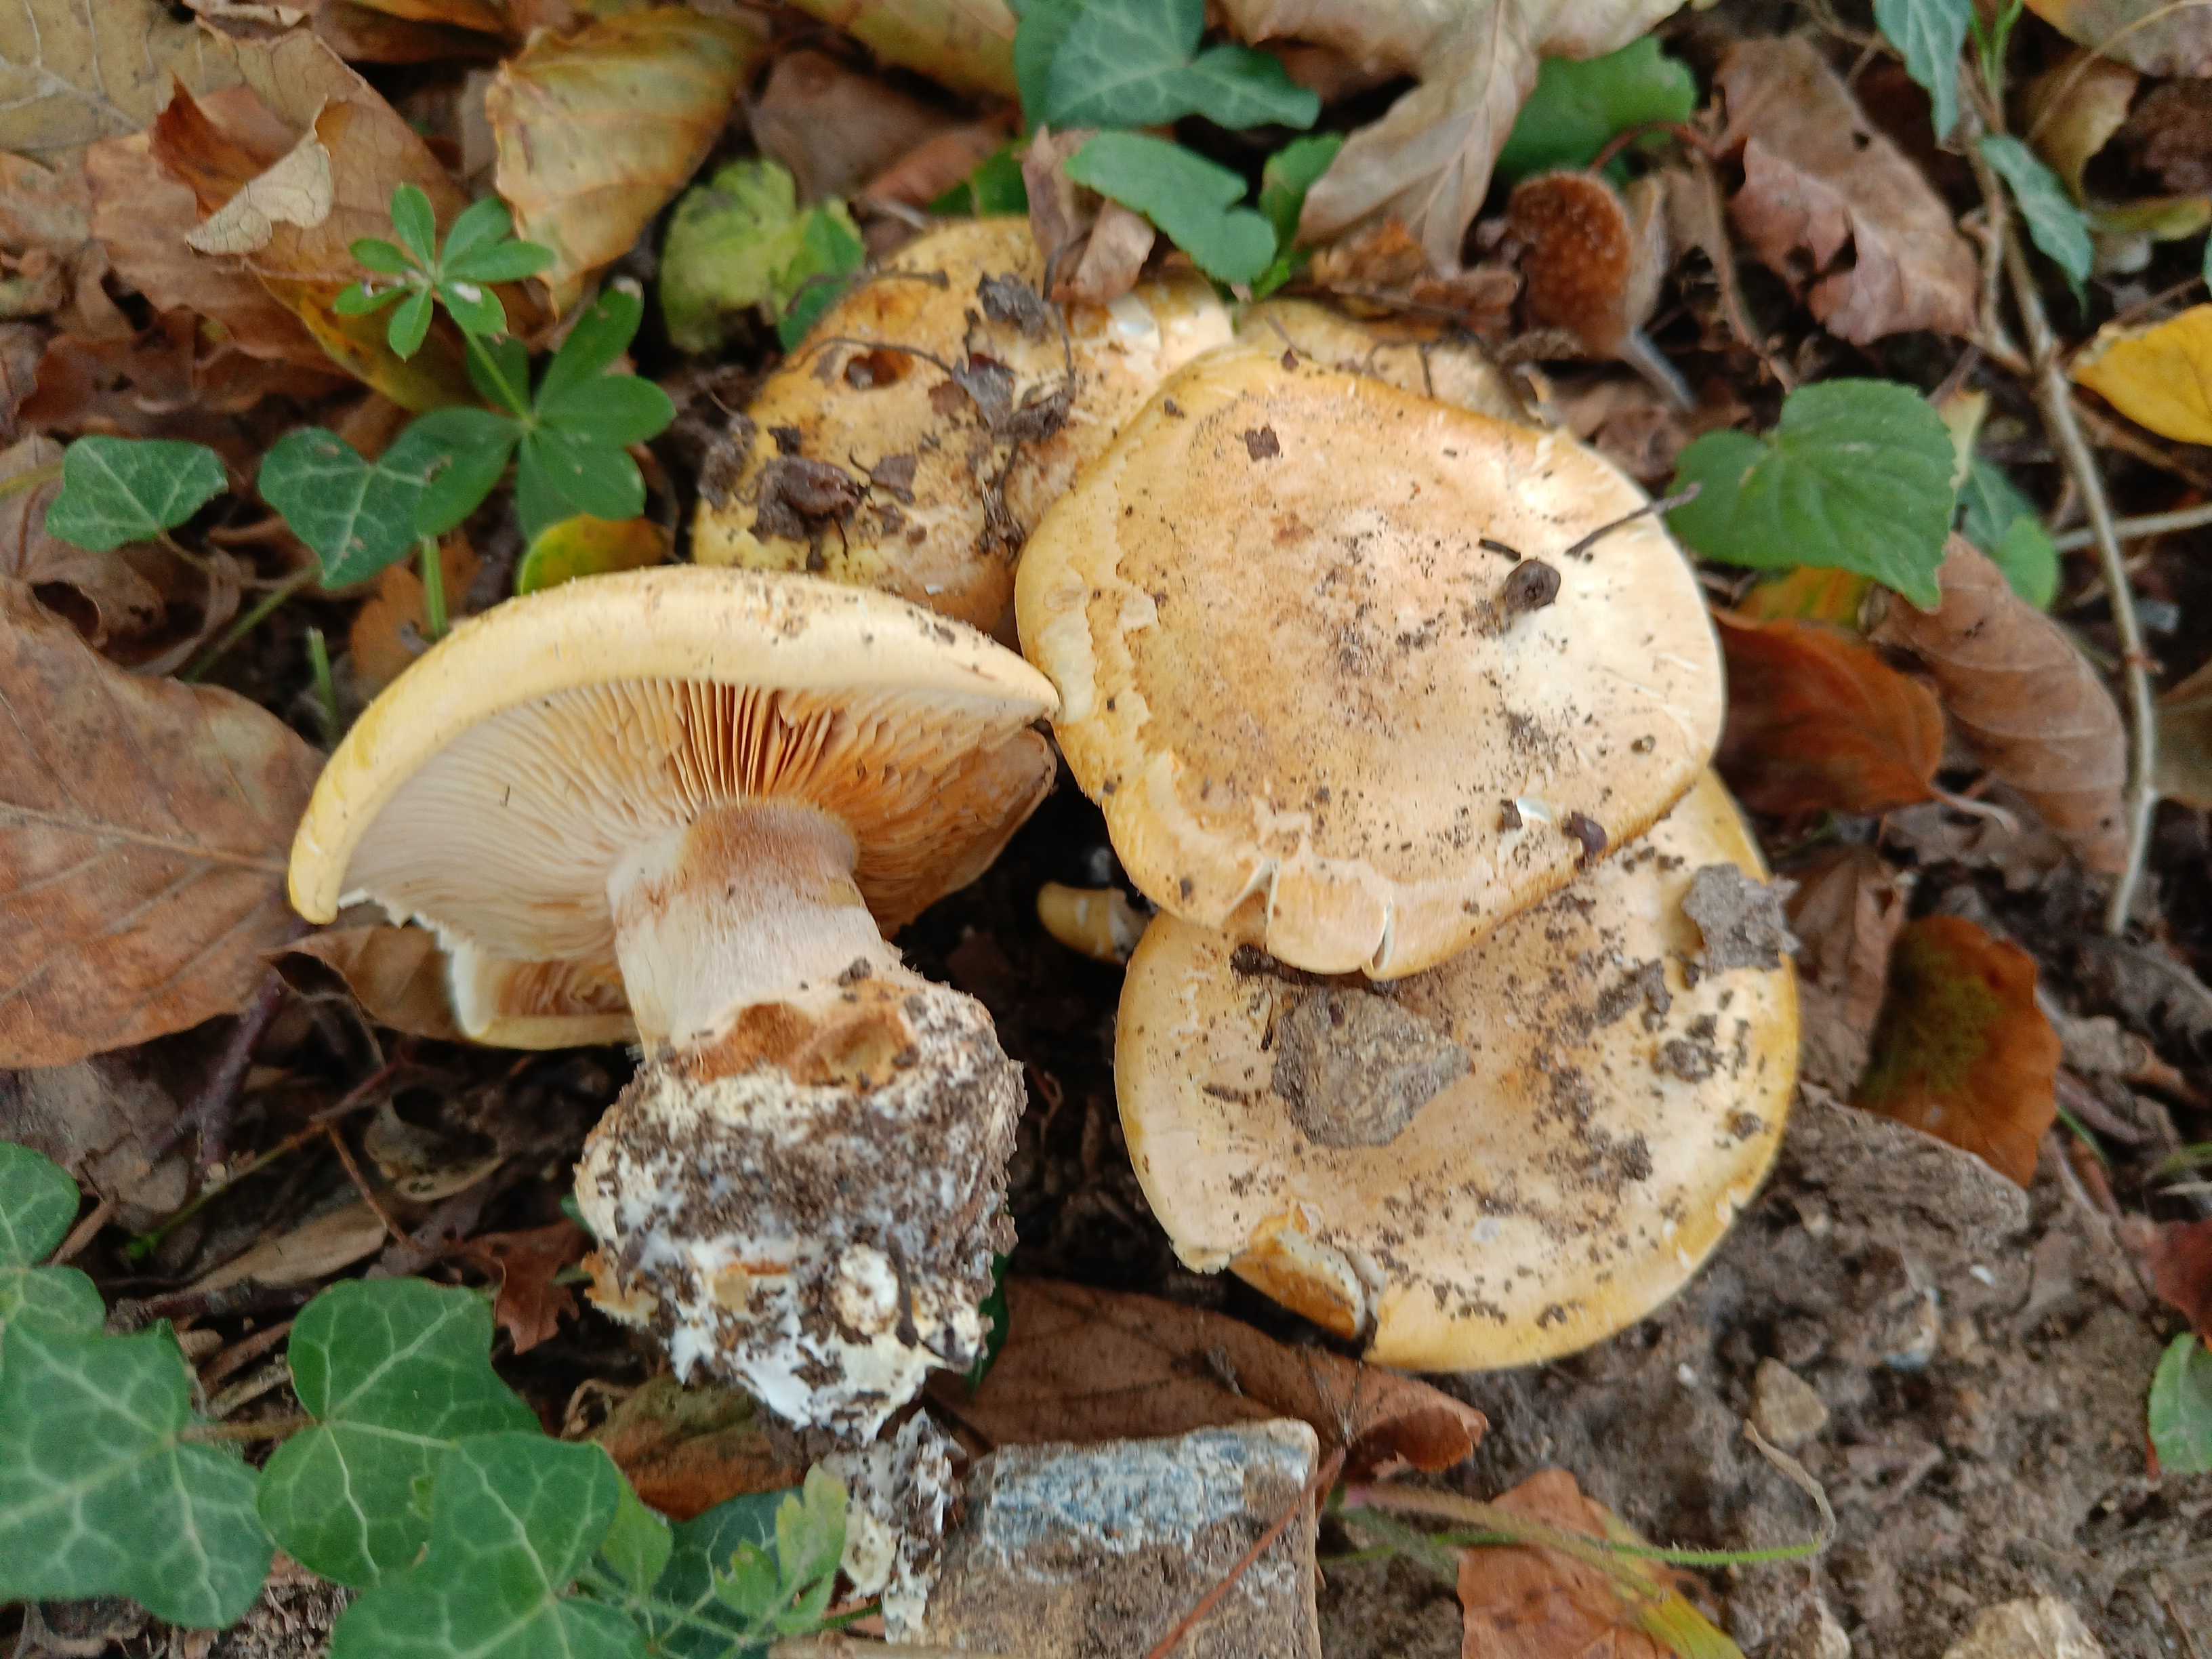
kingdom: Fungi
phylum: Basidiomycota
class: Agaricomycetes
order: Agaricales
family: Cortinariaceae
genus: Phlegmacium
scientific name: Phlegmacium caesiocortinatum
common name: rundsporet slørhat
